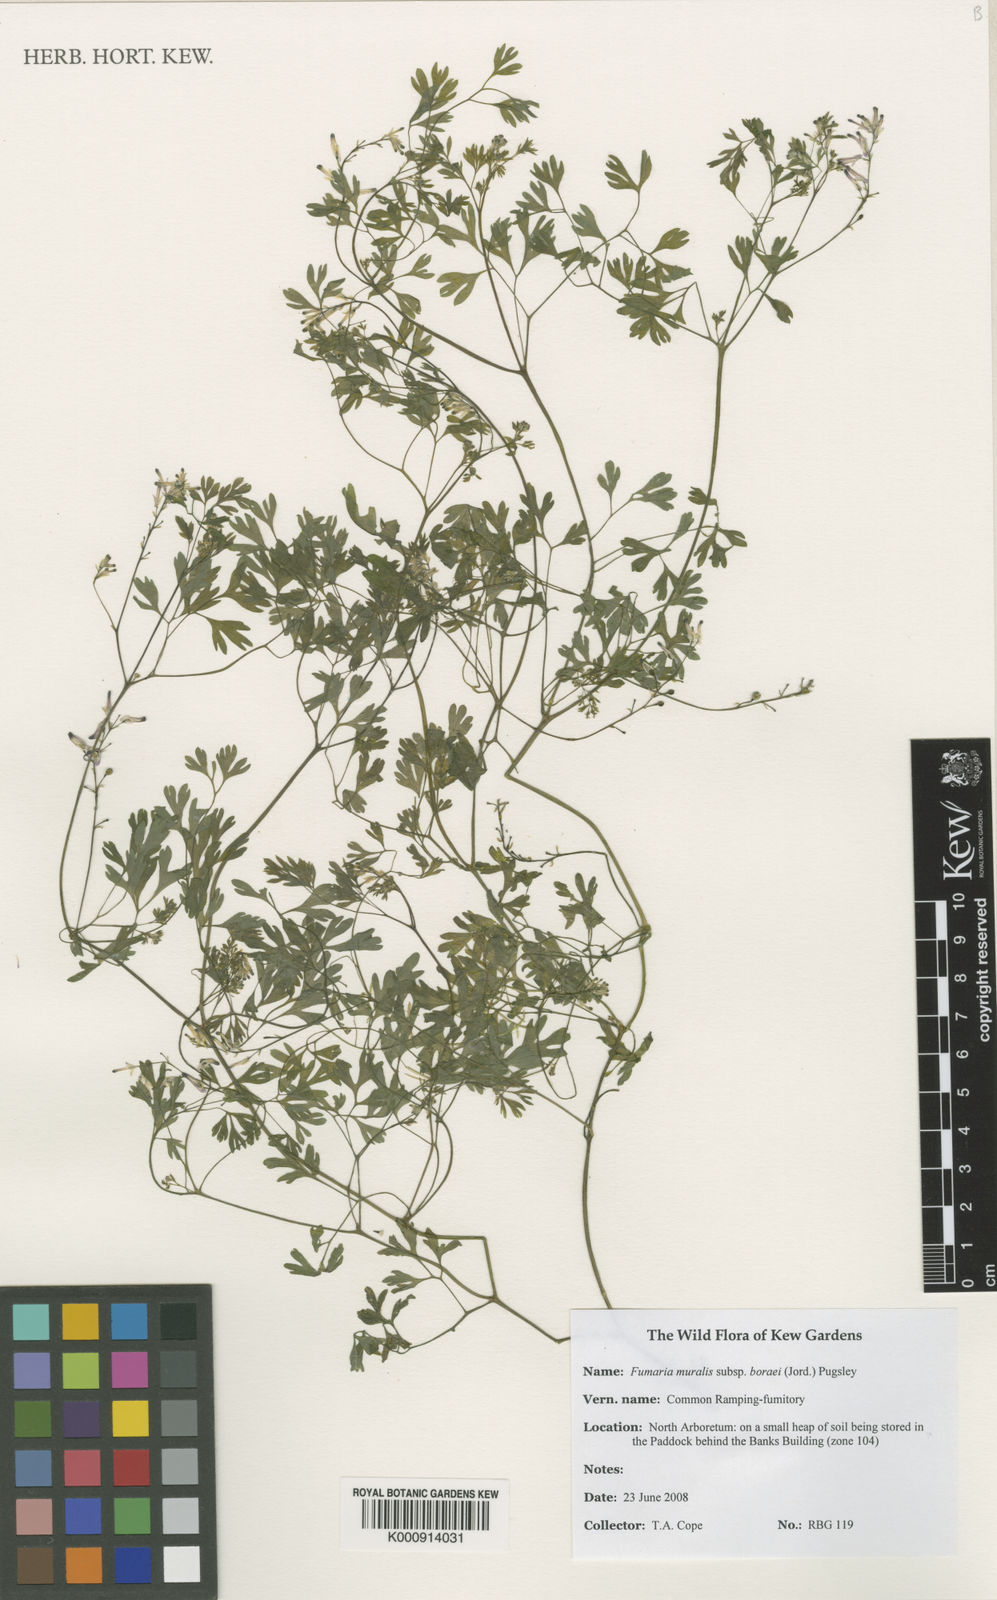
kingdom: Plantae
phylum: Tracheophyta
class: Magnoliopsida
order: Ranunculales
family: Papaveraceae
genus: Fumaria
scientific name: Fumaria muralis
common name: Common ramping-fumitory
